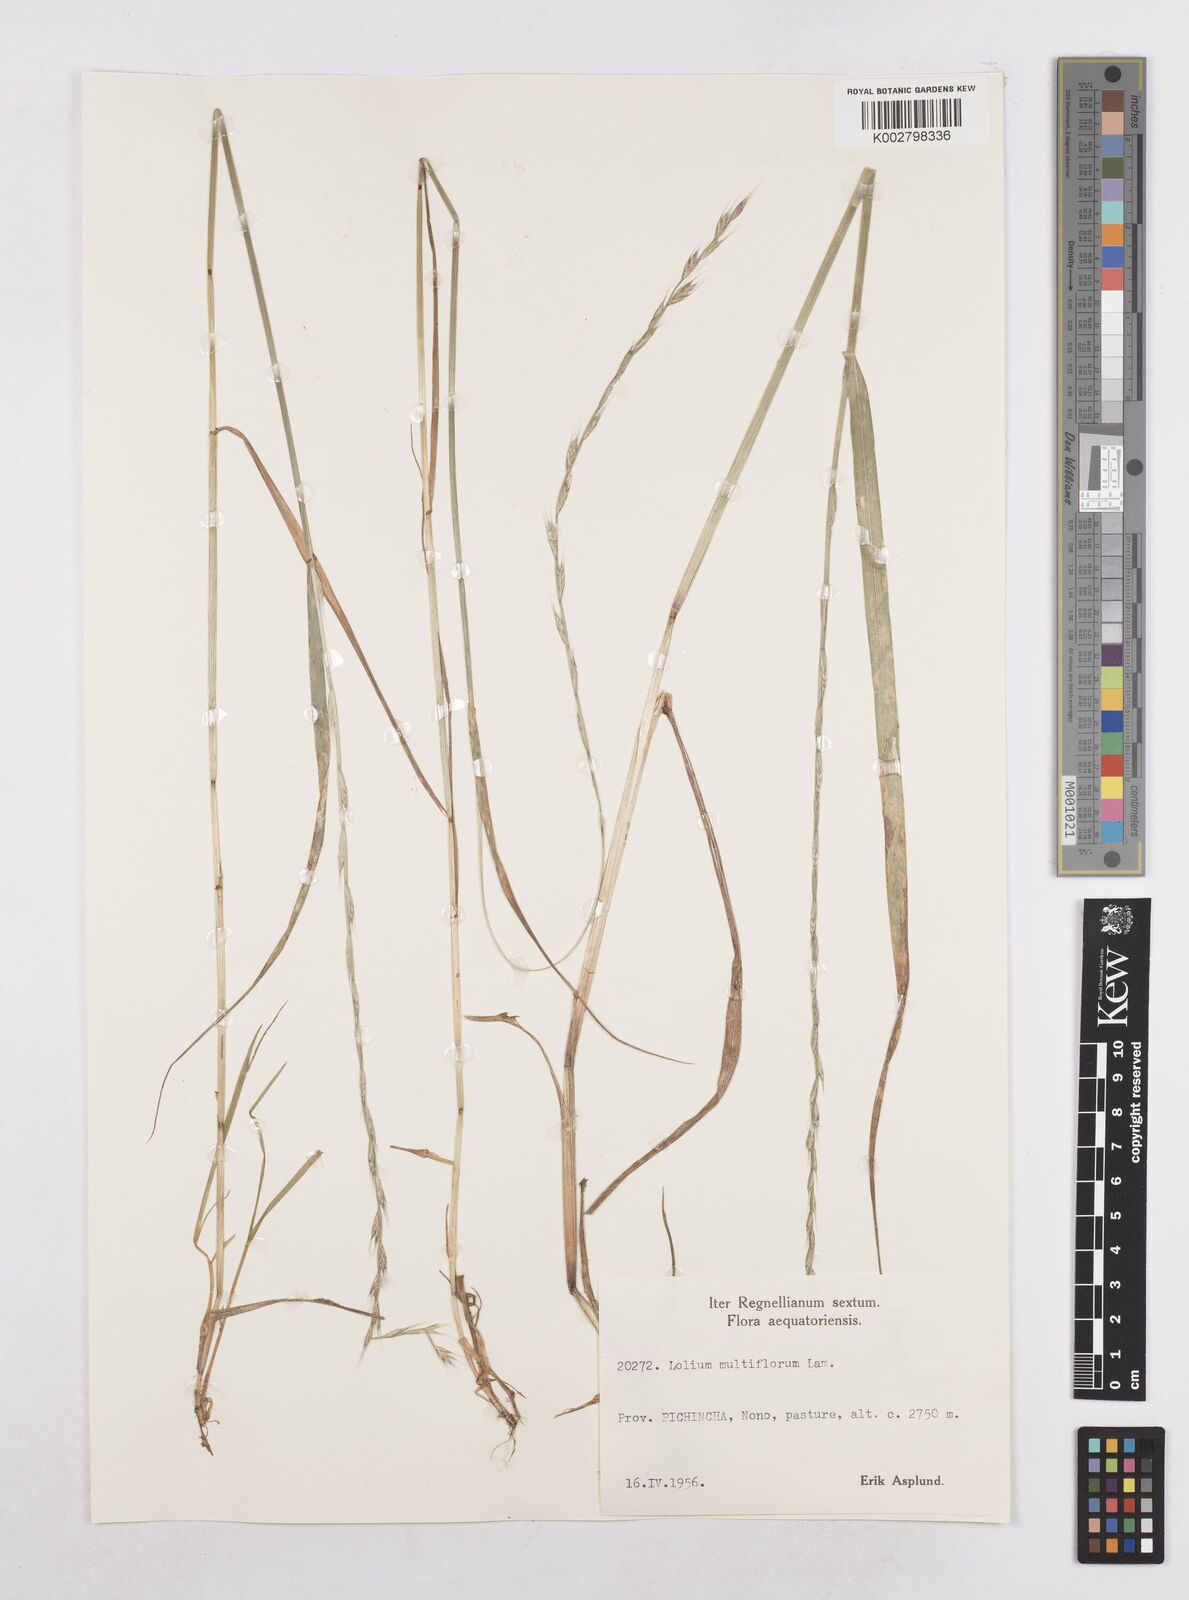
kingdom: Plantae
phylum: Tracheophyta
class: Liliopsida
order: Poales
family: Poaceae
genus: Lolium
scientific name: Lolium multiflorum
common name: Annual ryegrass
